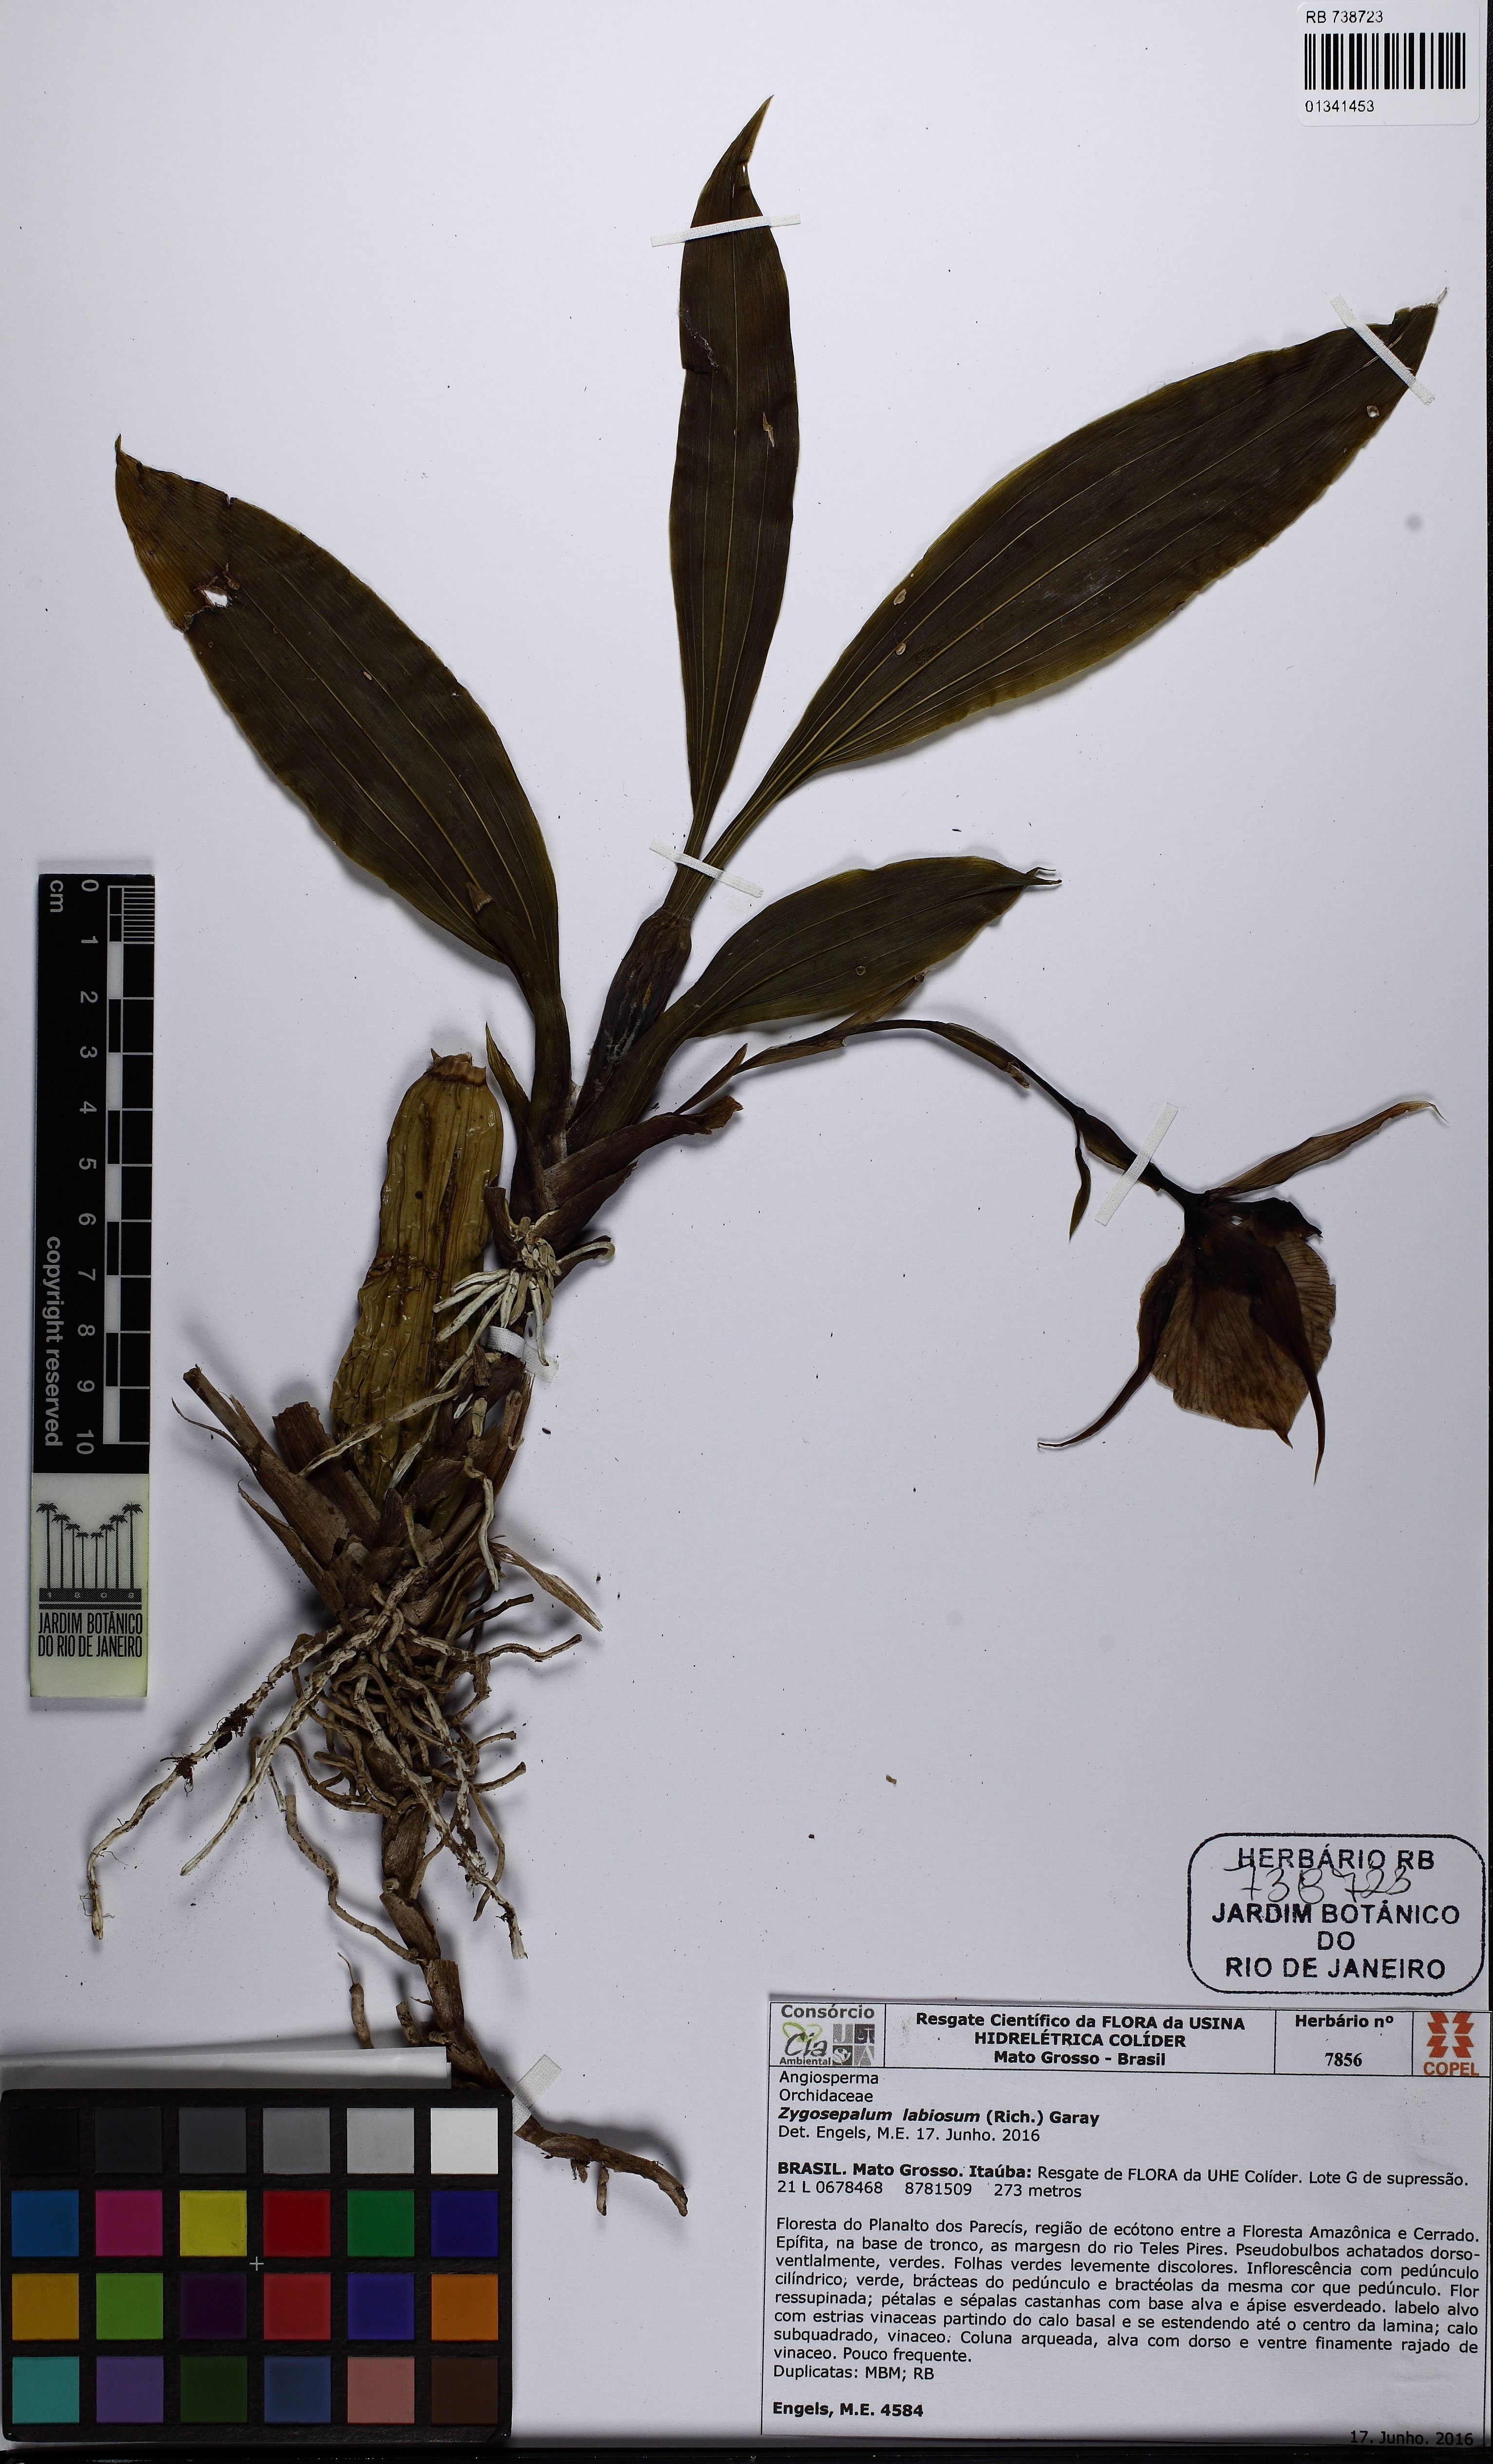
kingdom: Plantae
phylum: Tracheophyta
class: Liliopsida
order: Asparagales
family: Orchidaceae
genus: Zygosepalum
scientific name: Zygosepalum labiosum
